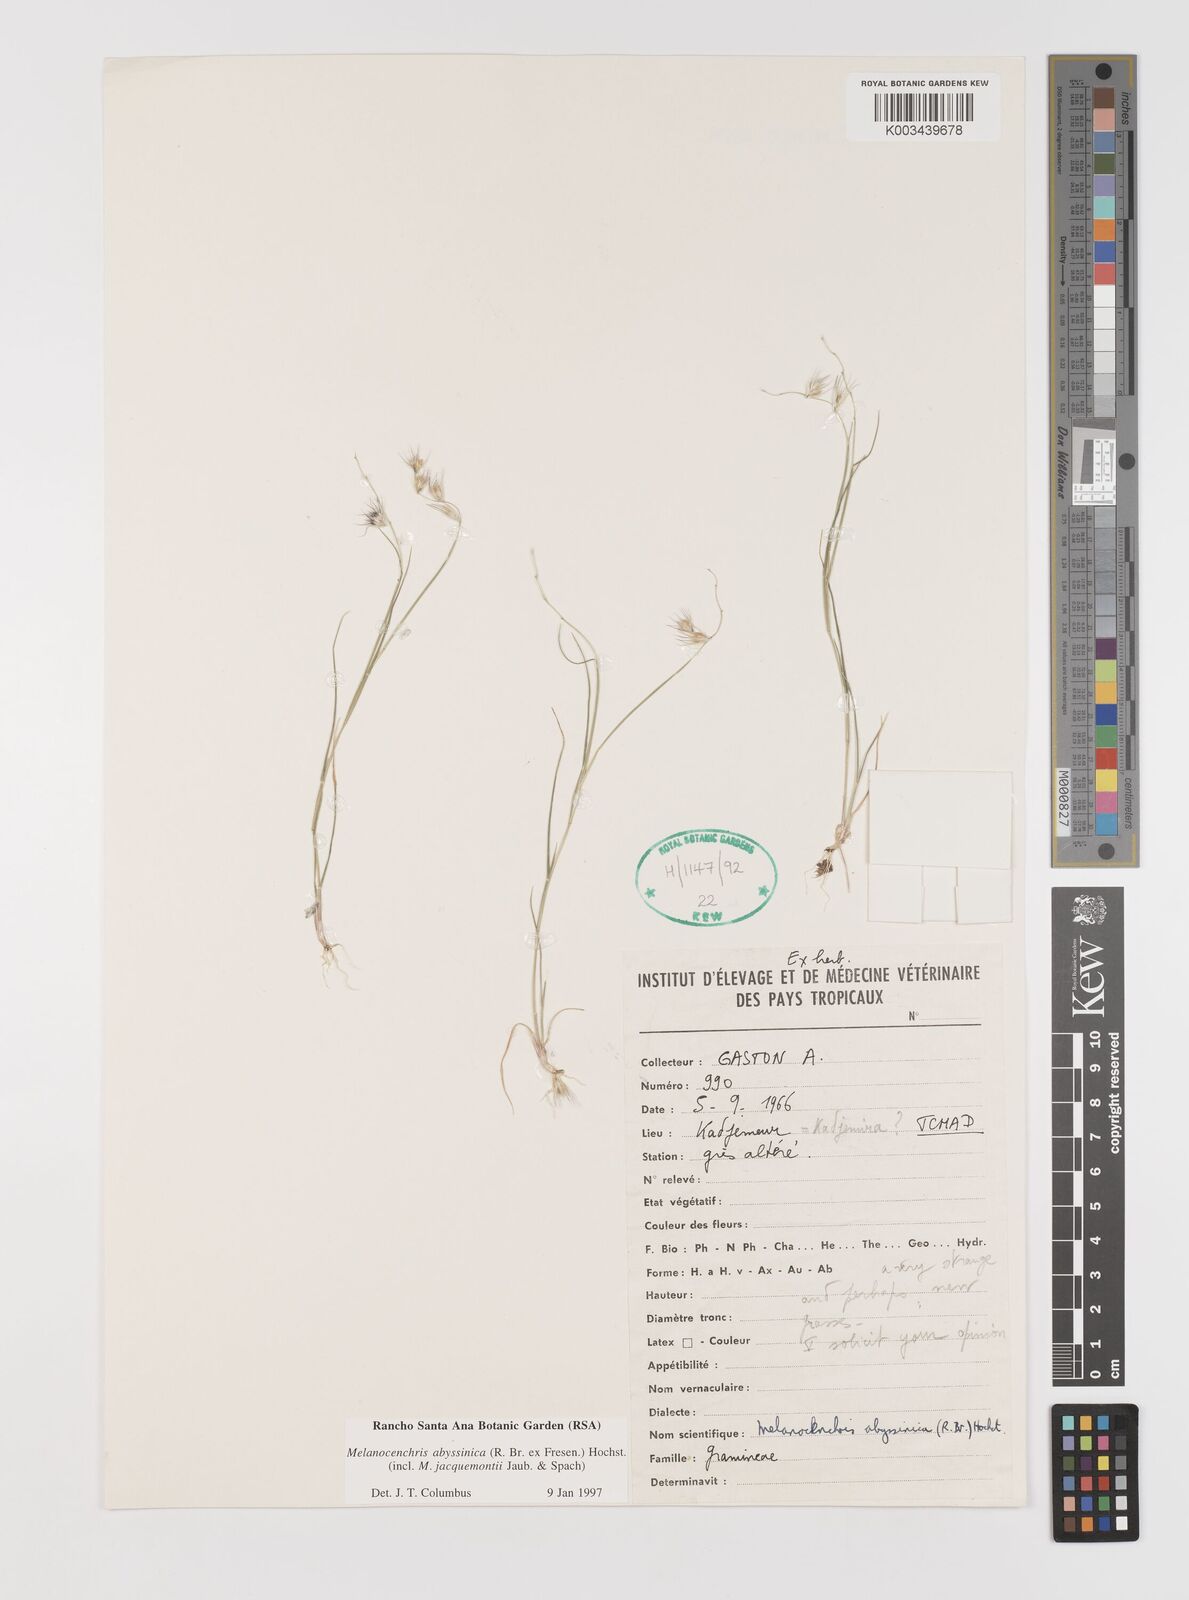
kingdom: Plantae
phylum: Tracheophyta
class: Liliopsida
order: Poales
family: Poaceae
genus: Melanocenchris
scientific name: Melanocenchris abyssinica
